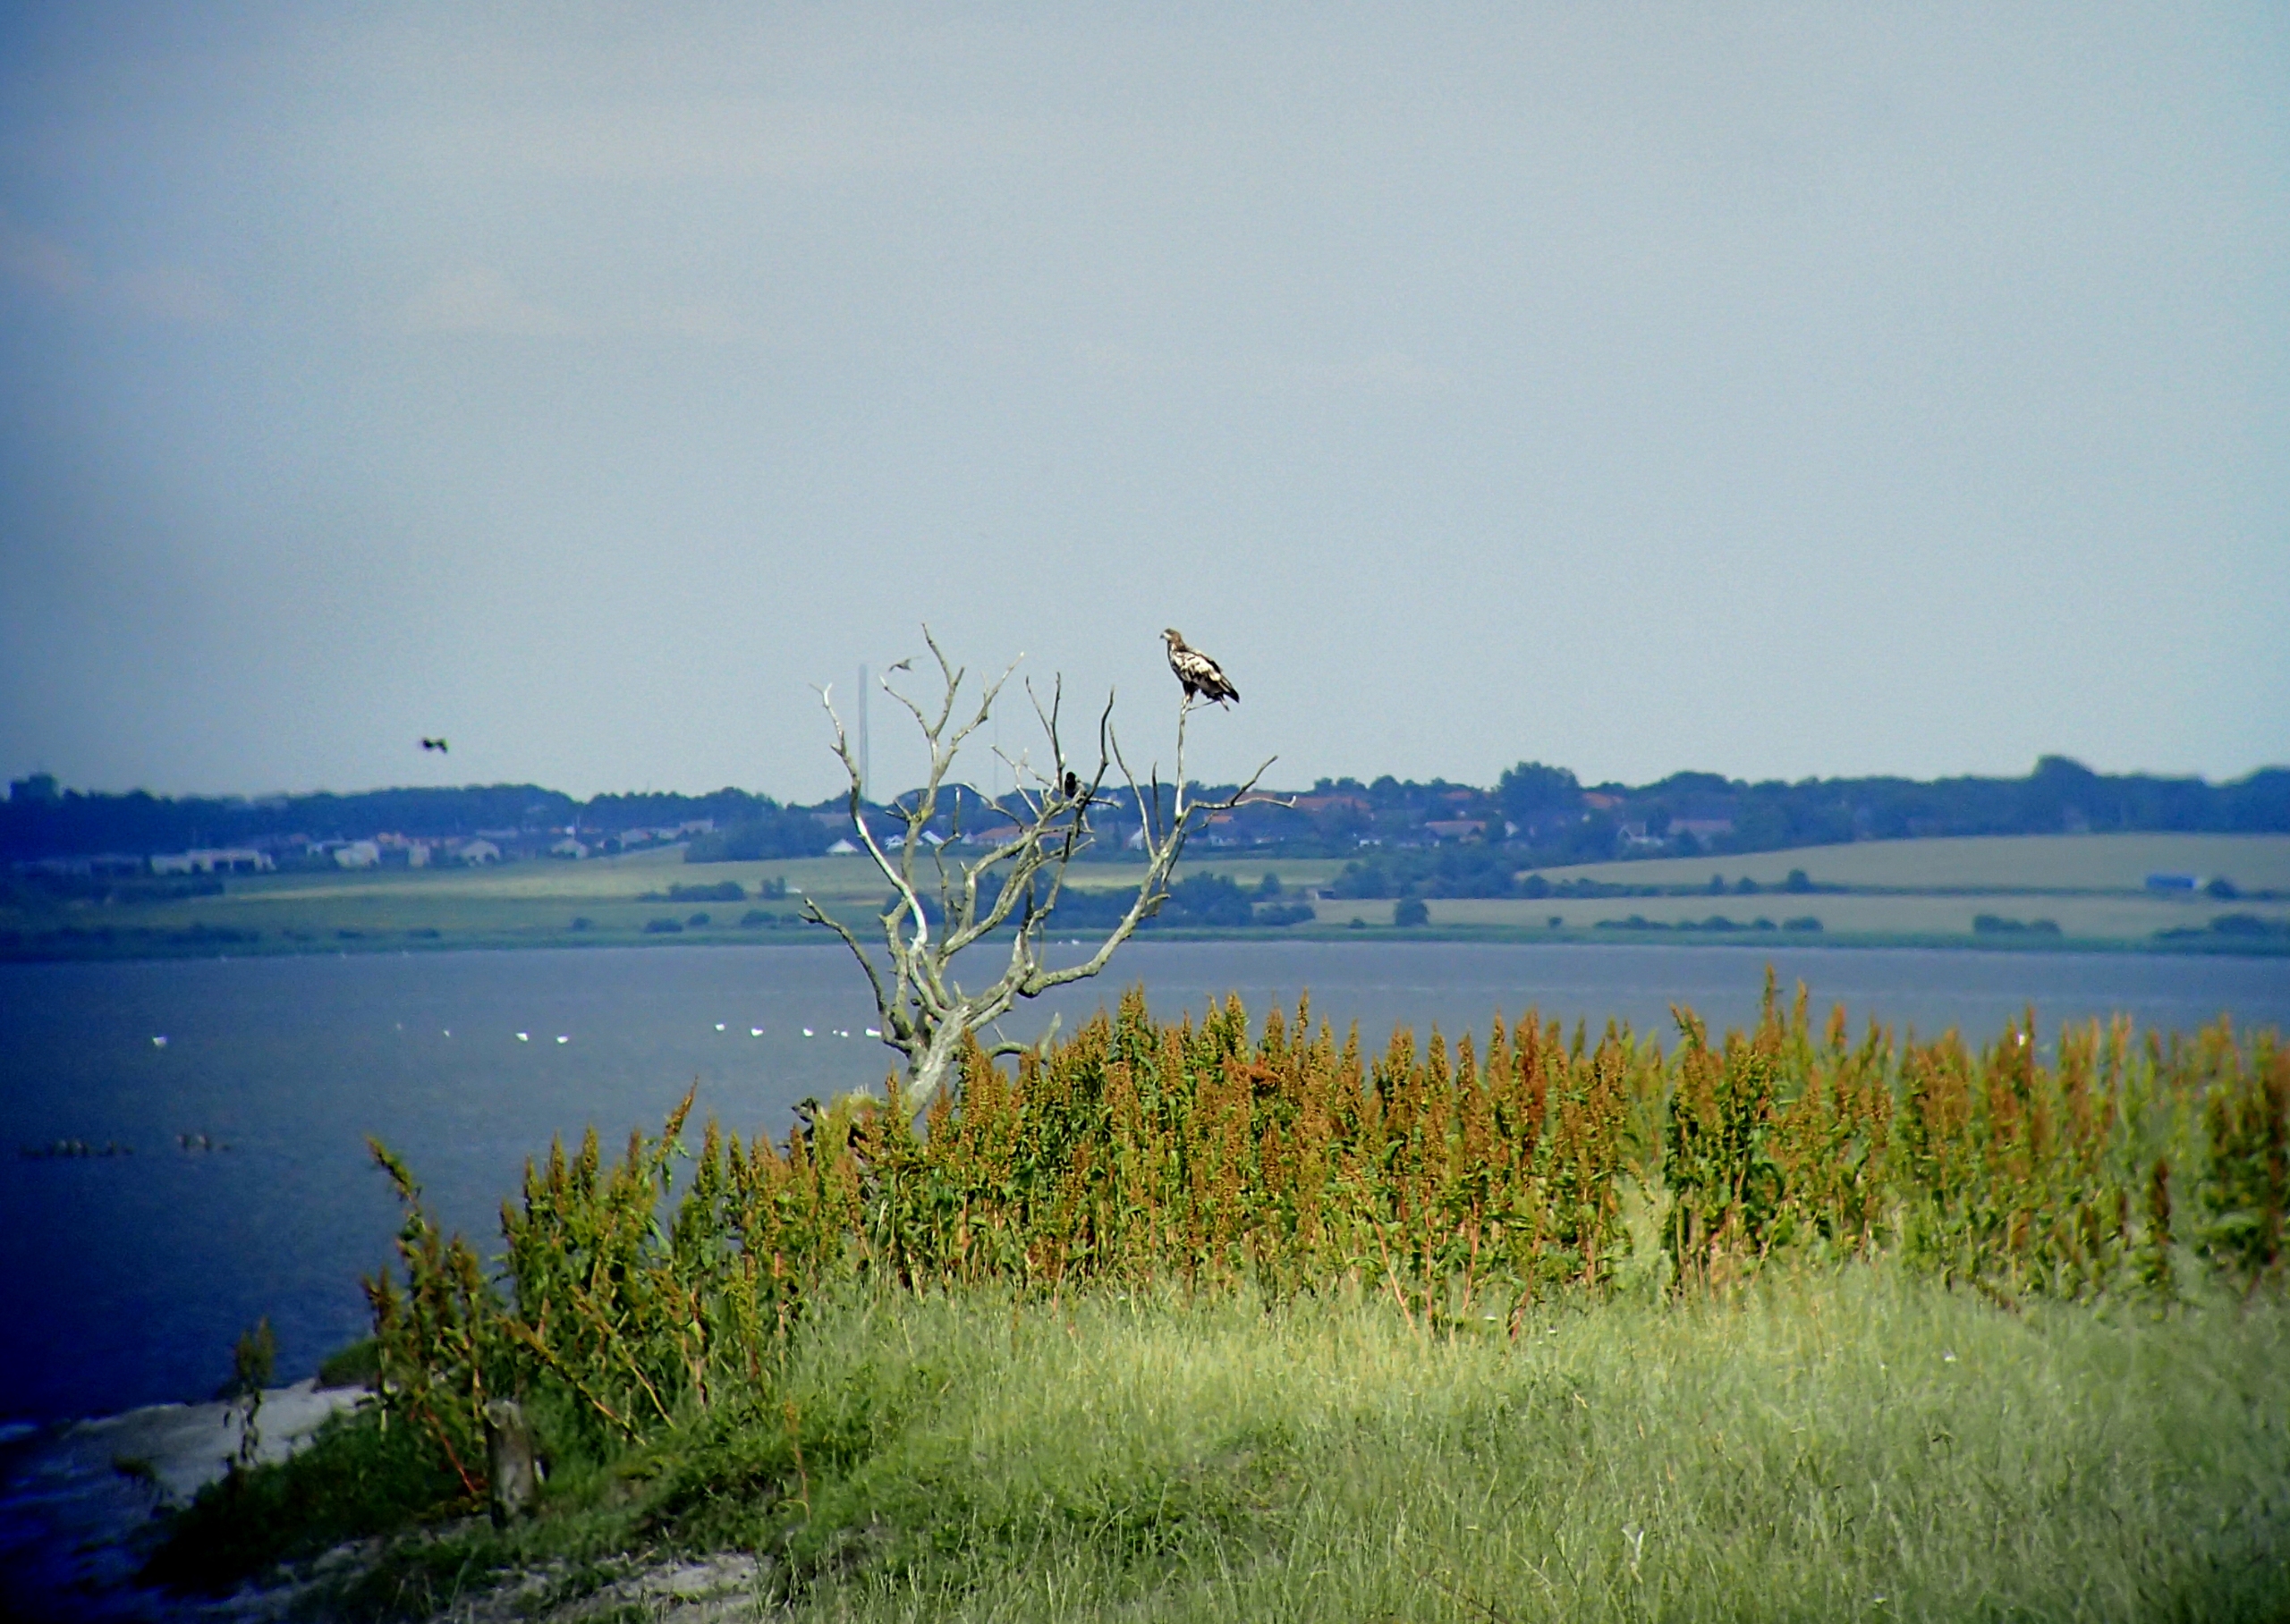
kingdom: Animalia
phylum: Chordata
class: Aves
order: Accipitriformes
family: Accipitridae
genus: Haliaeetus
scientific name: Haliaeetus albicilla
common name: Havørn
